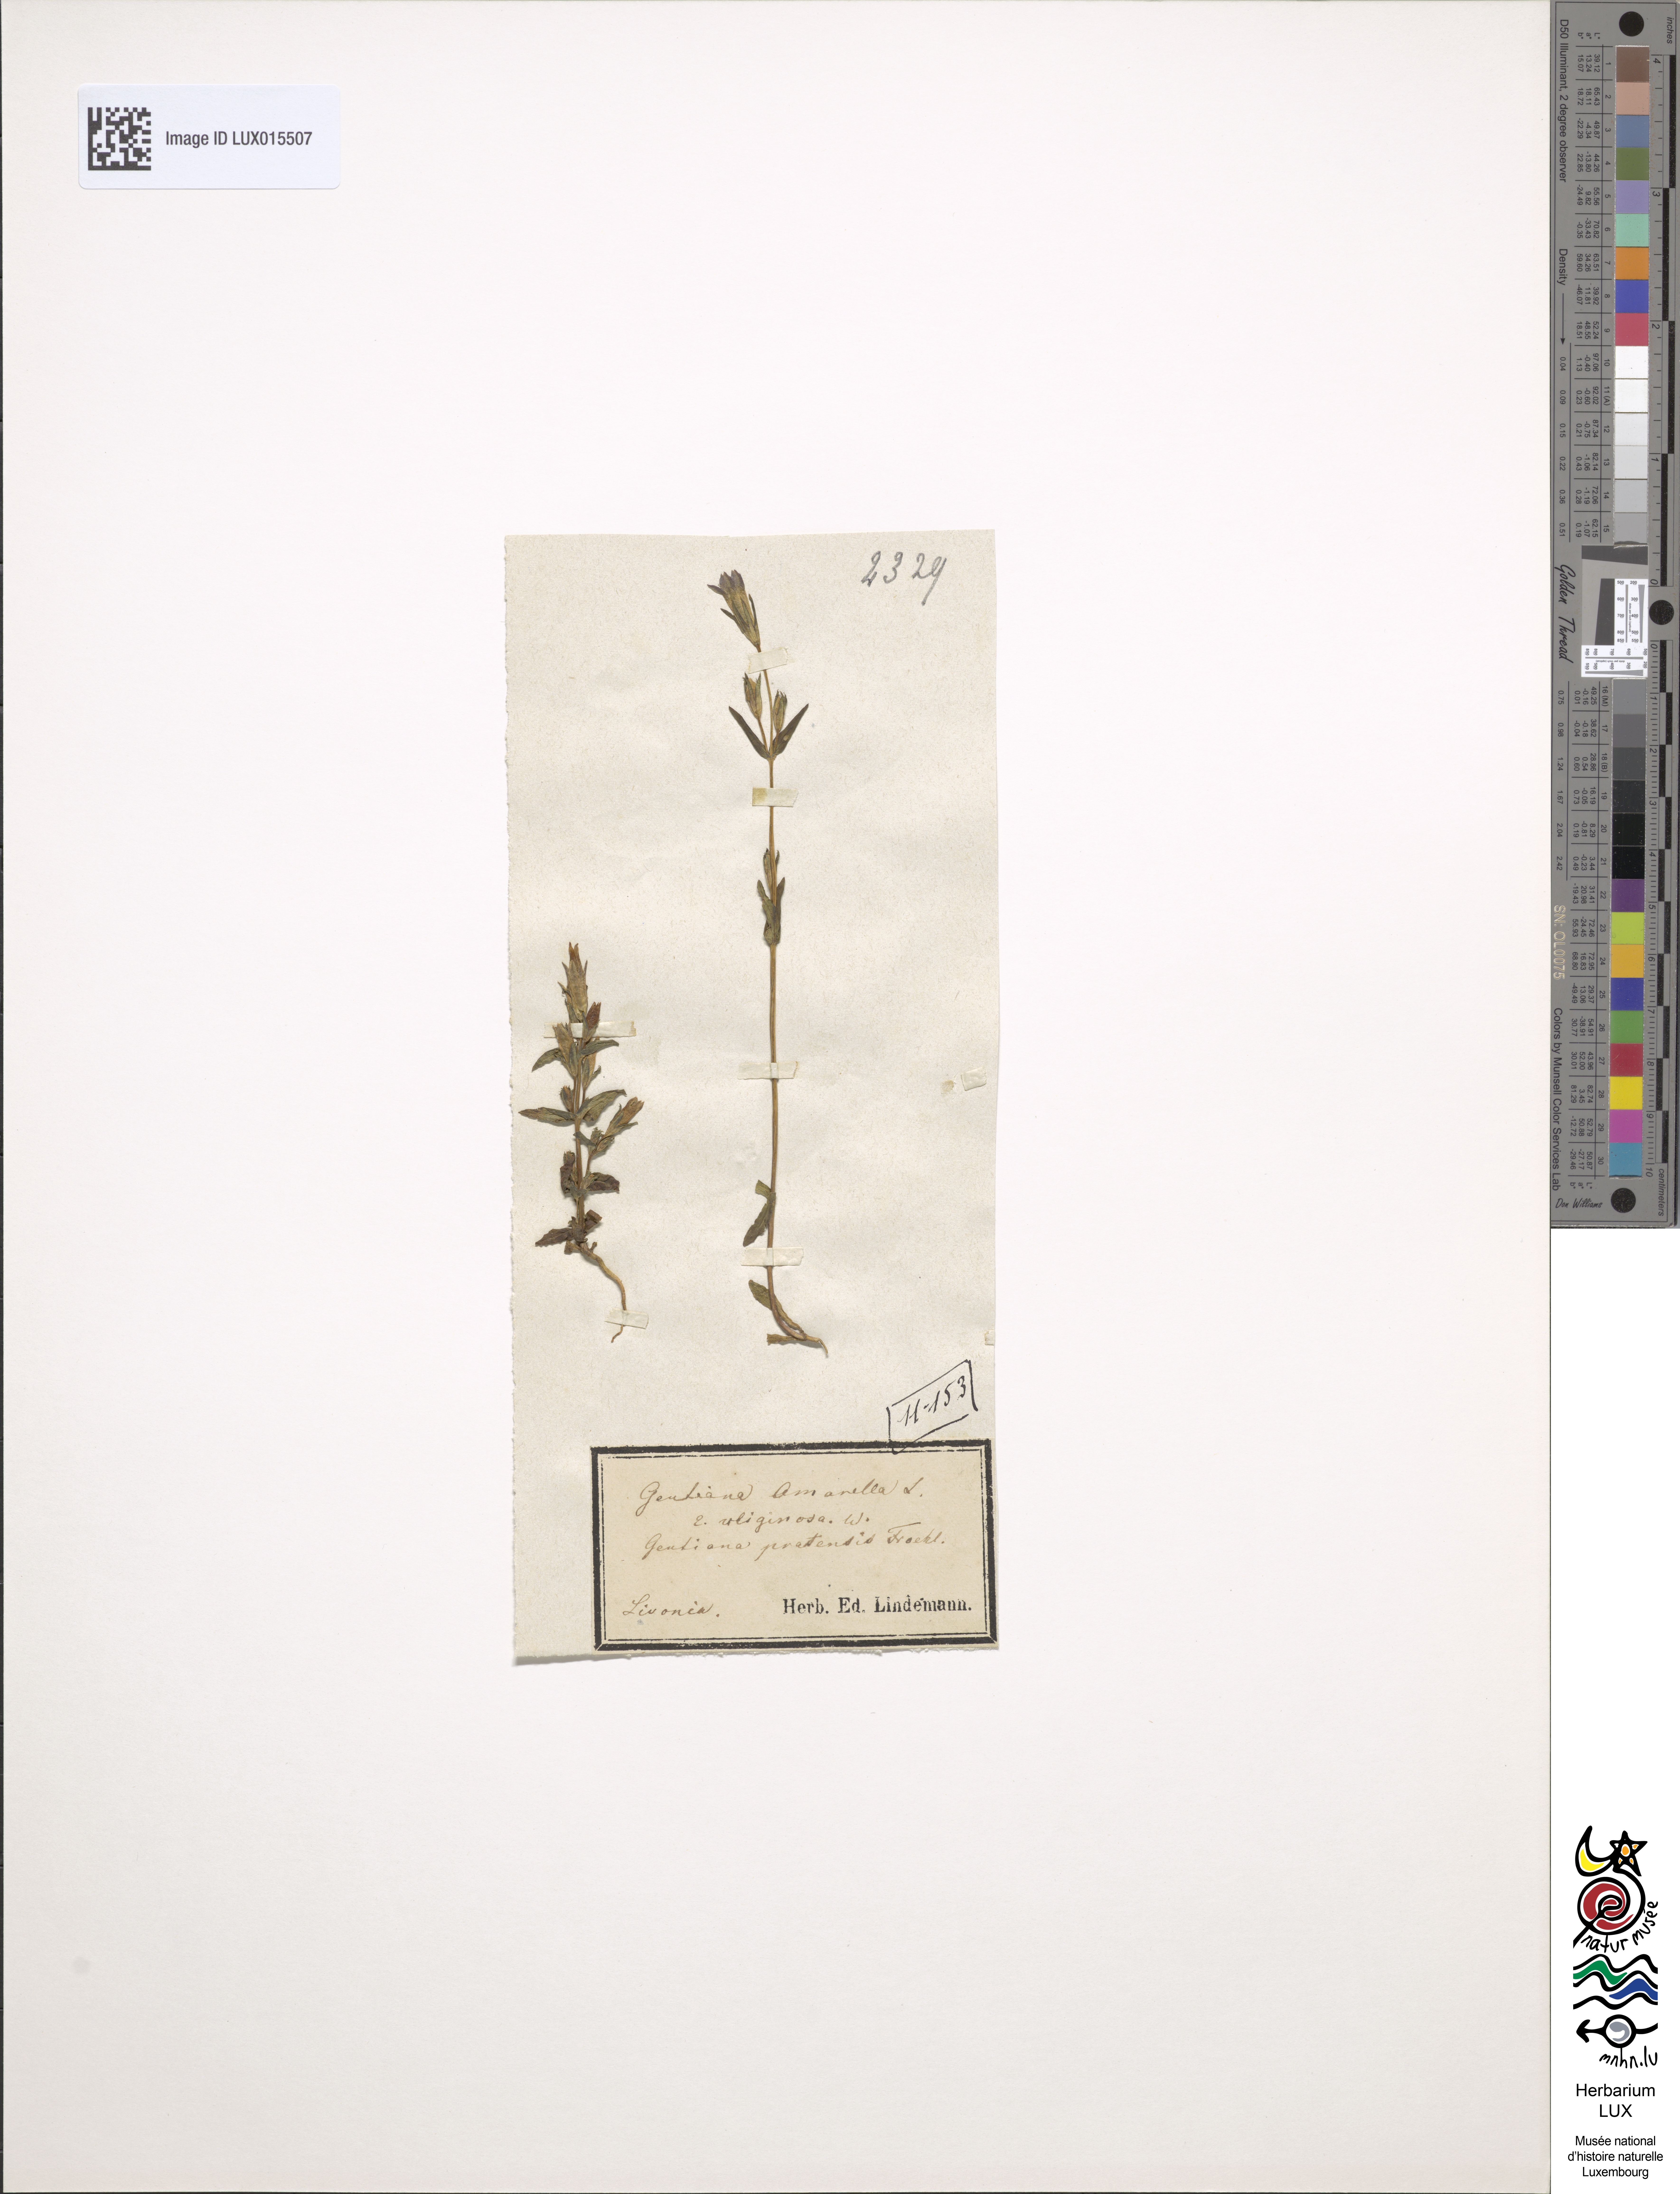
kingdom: Plantae
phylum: Tracheophyta
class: Magnoliopsida
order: Gentianales
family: Gentianaceae
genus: Gentianella
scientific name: Gentianella uliginosa
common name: Dune gentian
